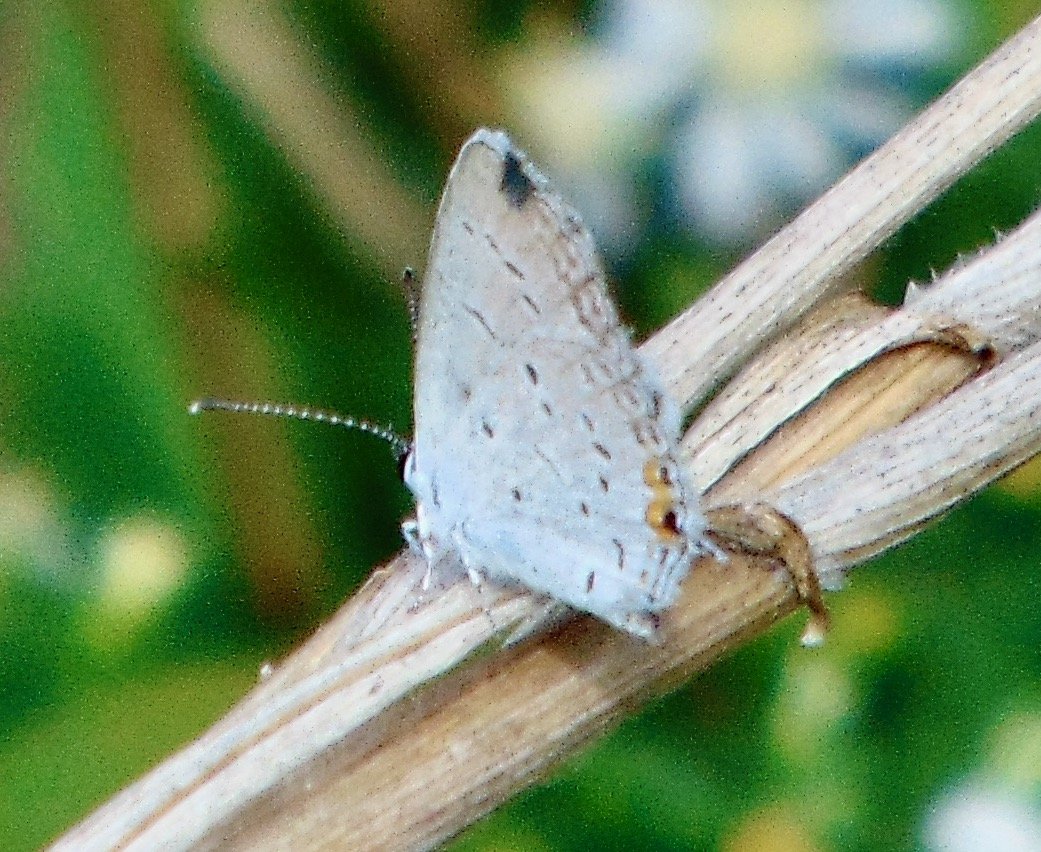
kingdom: Animalia
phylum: Arthropoda
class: Insecta
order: Lepidoptera
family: Lycaenidae
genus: Elkalyce
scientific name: Elkalyce comyntas
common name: Eastern Tailed-Blue
